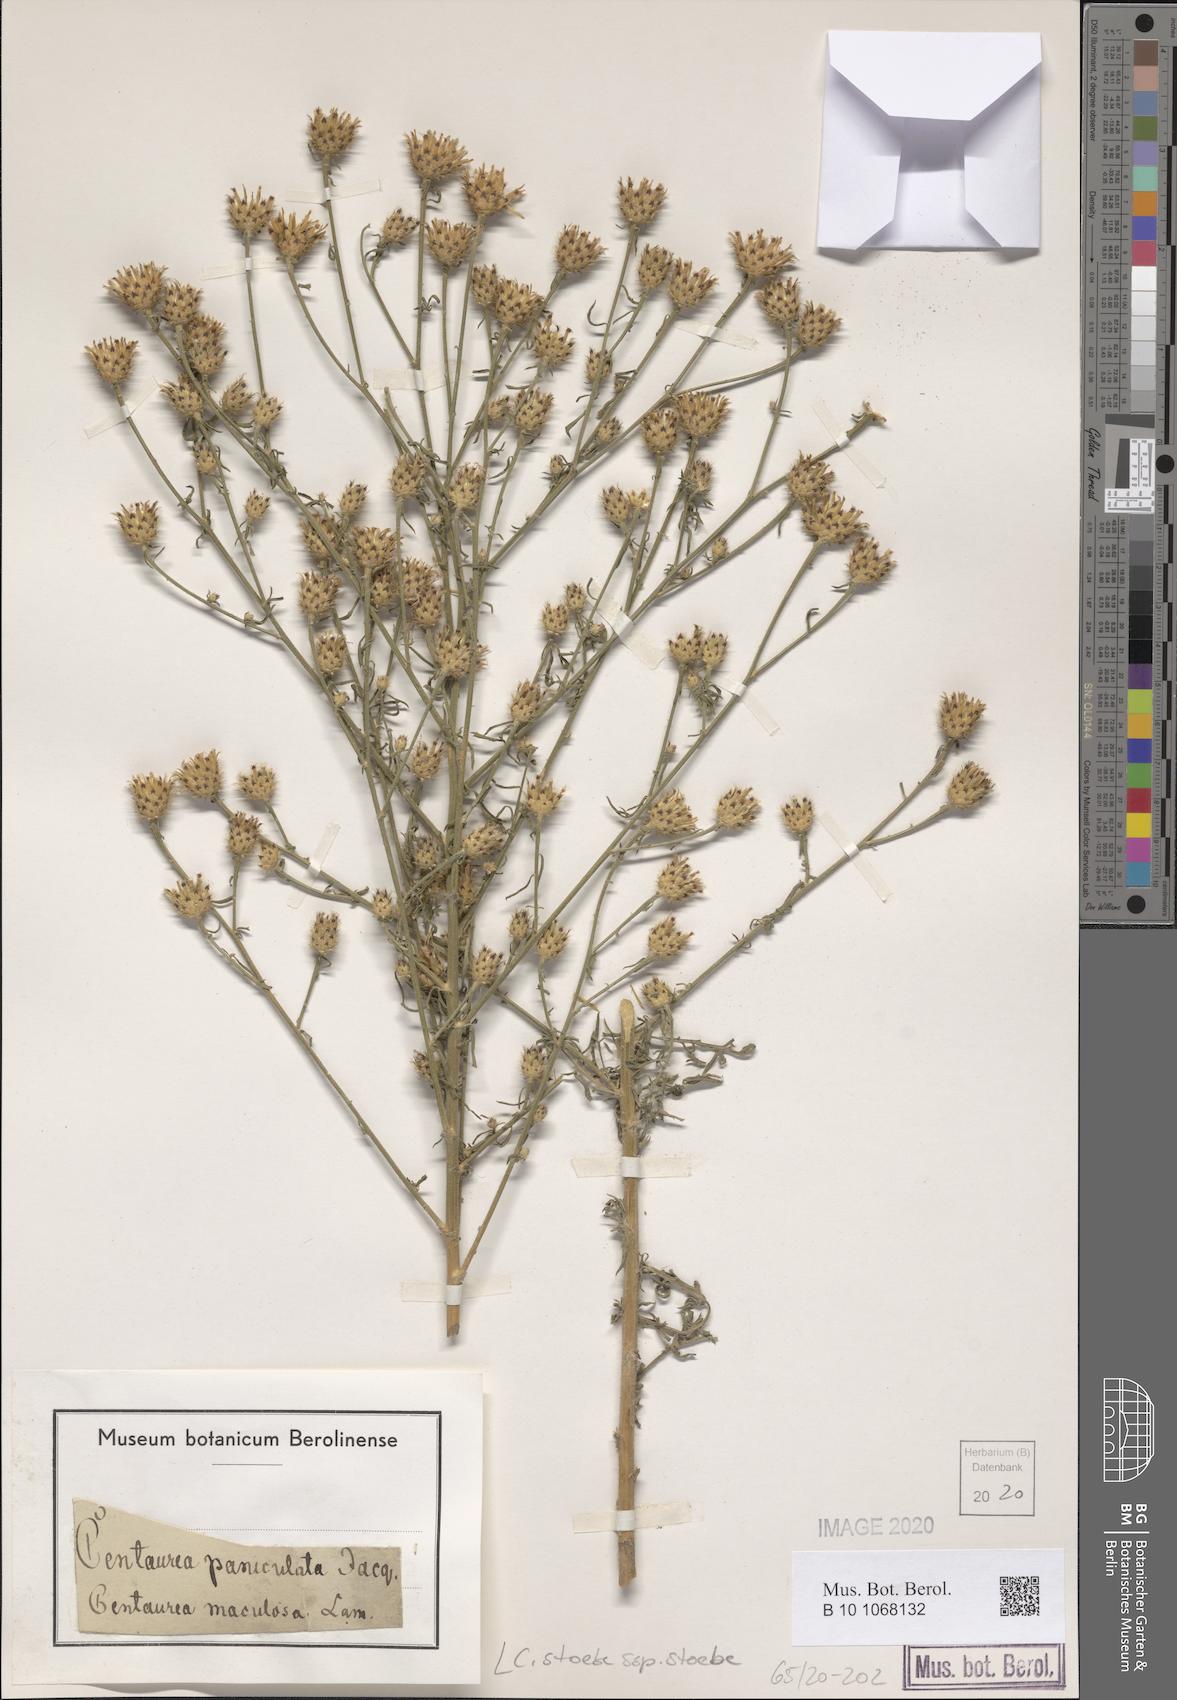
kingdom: Plantae
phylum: Tracheophyta
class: Magnoliopsida
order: Asterales
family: Asteraceae
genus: Centaurea
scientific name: Centaurea stoebe
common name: Spotted knapweed
